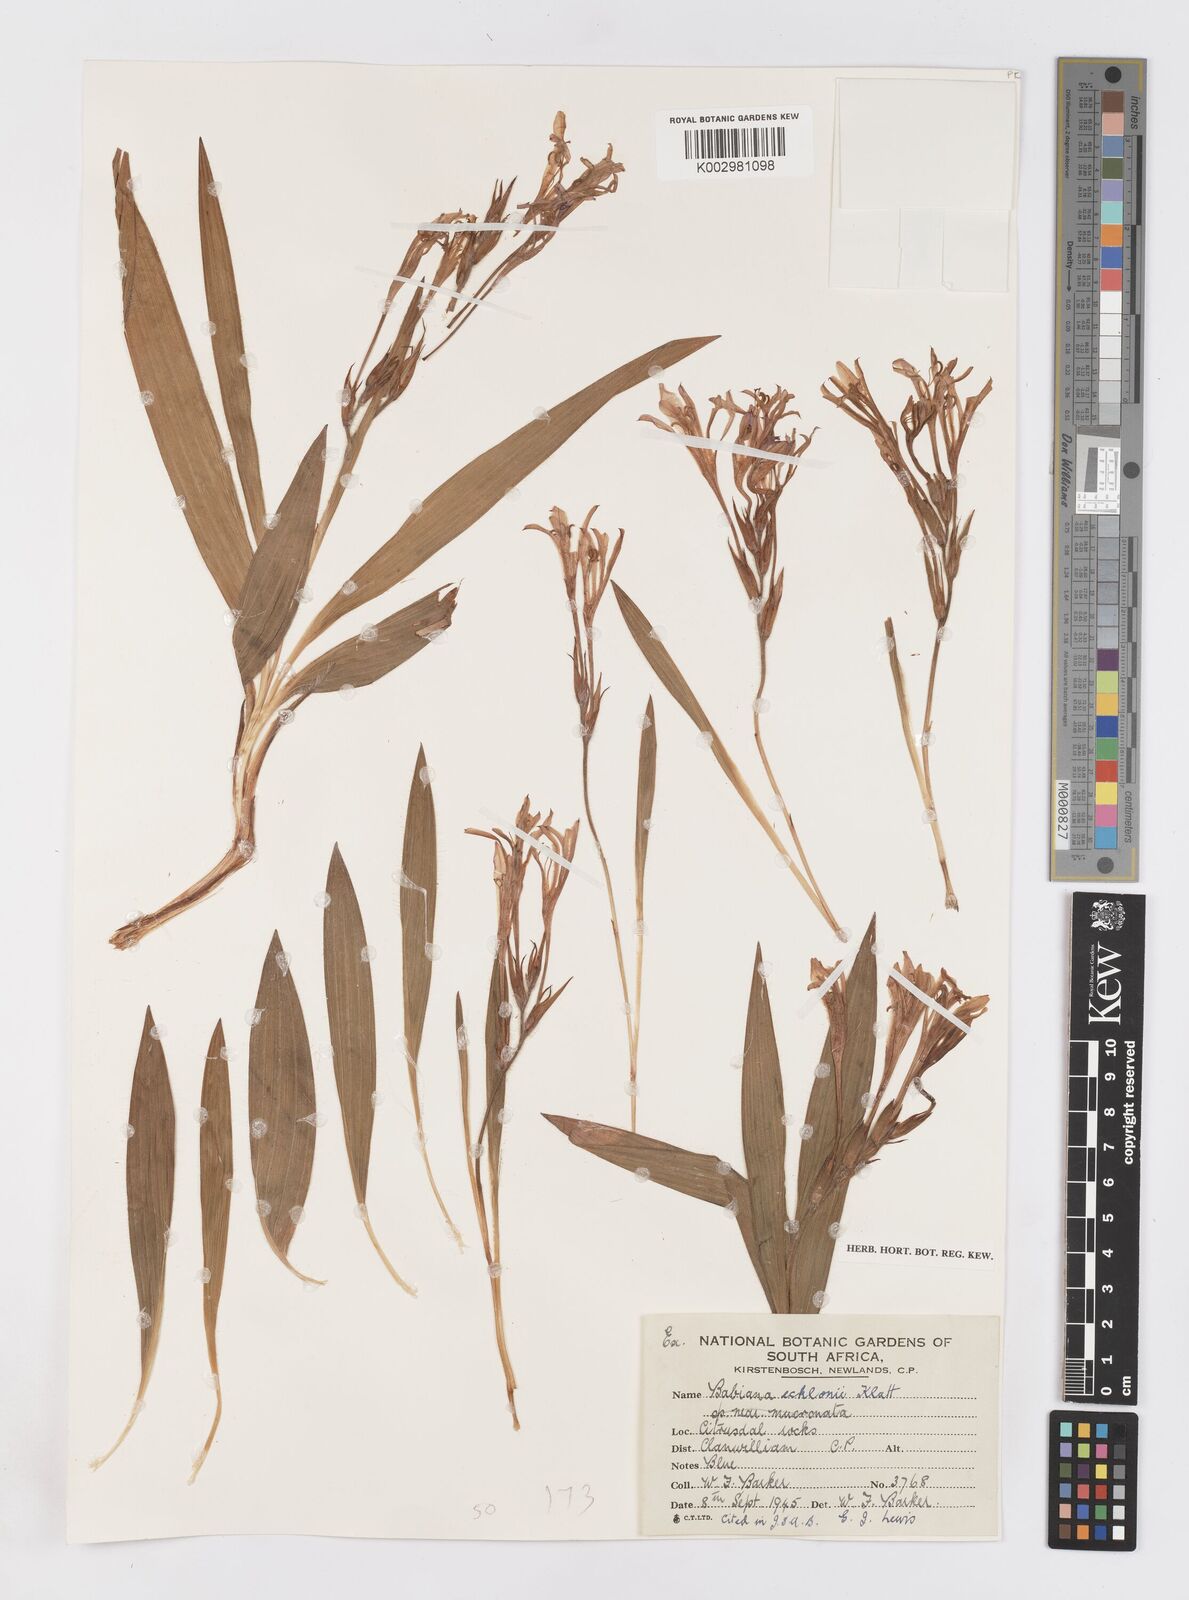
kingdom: Plantae
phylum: Tracheophyta
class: Liliopsida
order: Asparagales
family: Iridaceae
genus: Babiana
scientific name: Babiana ecklonii
